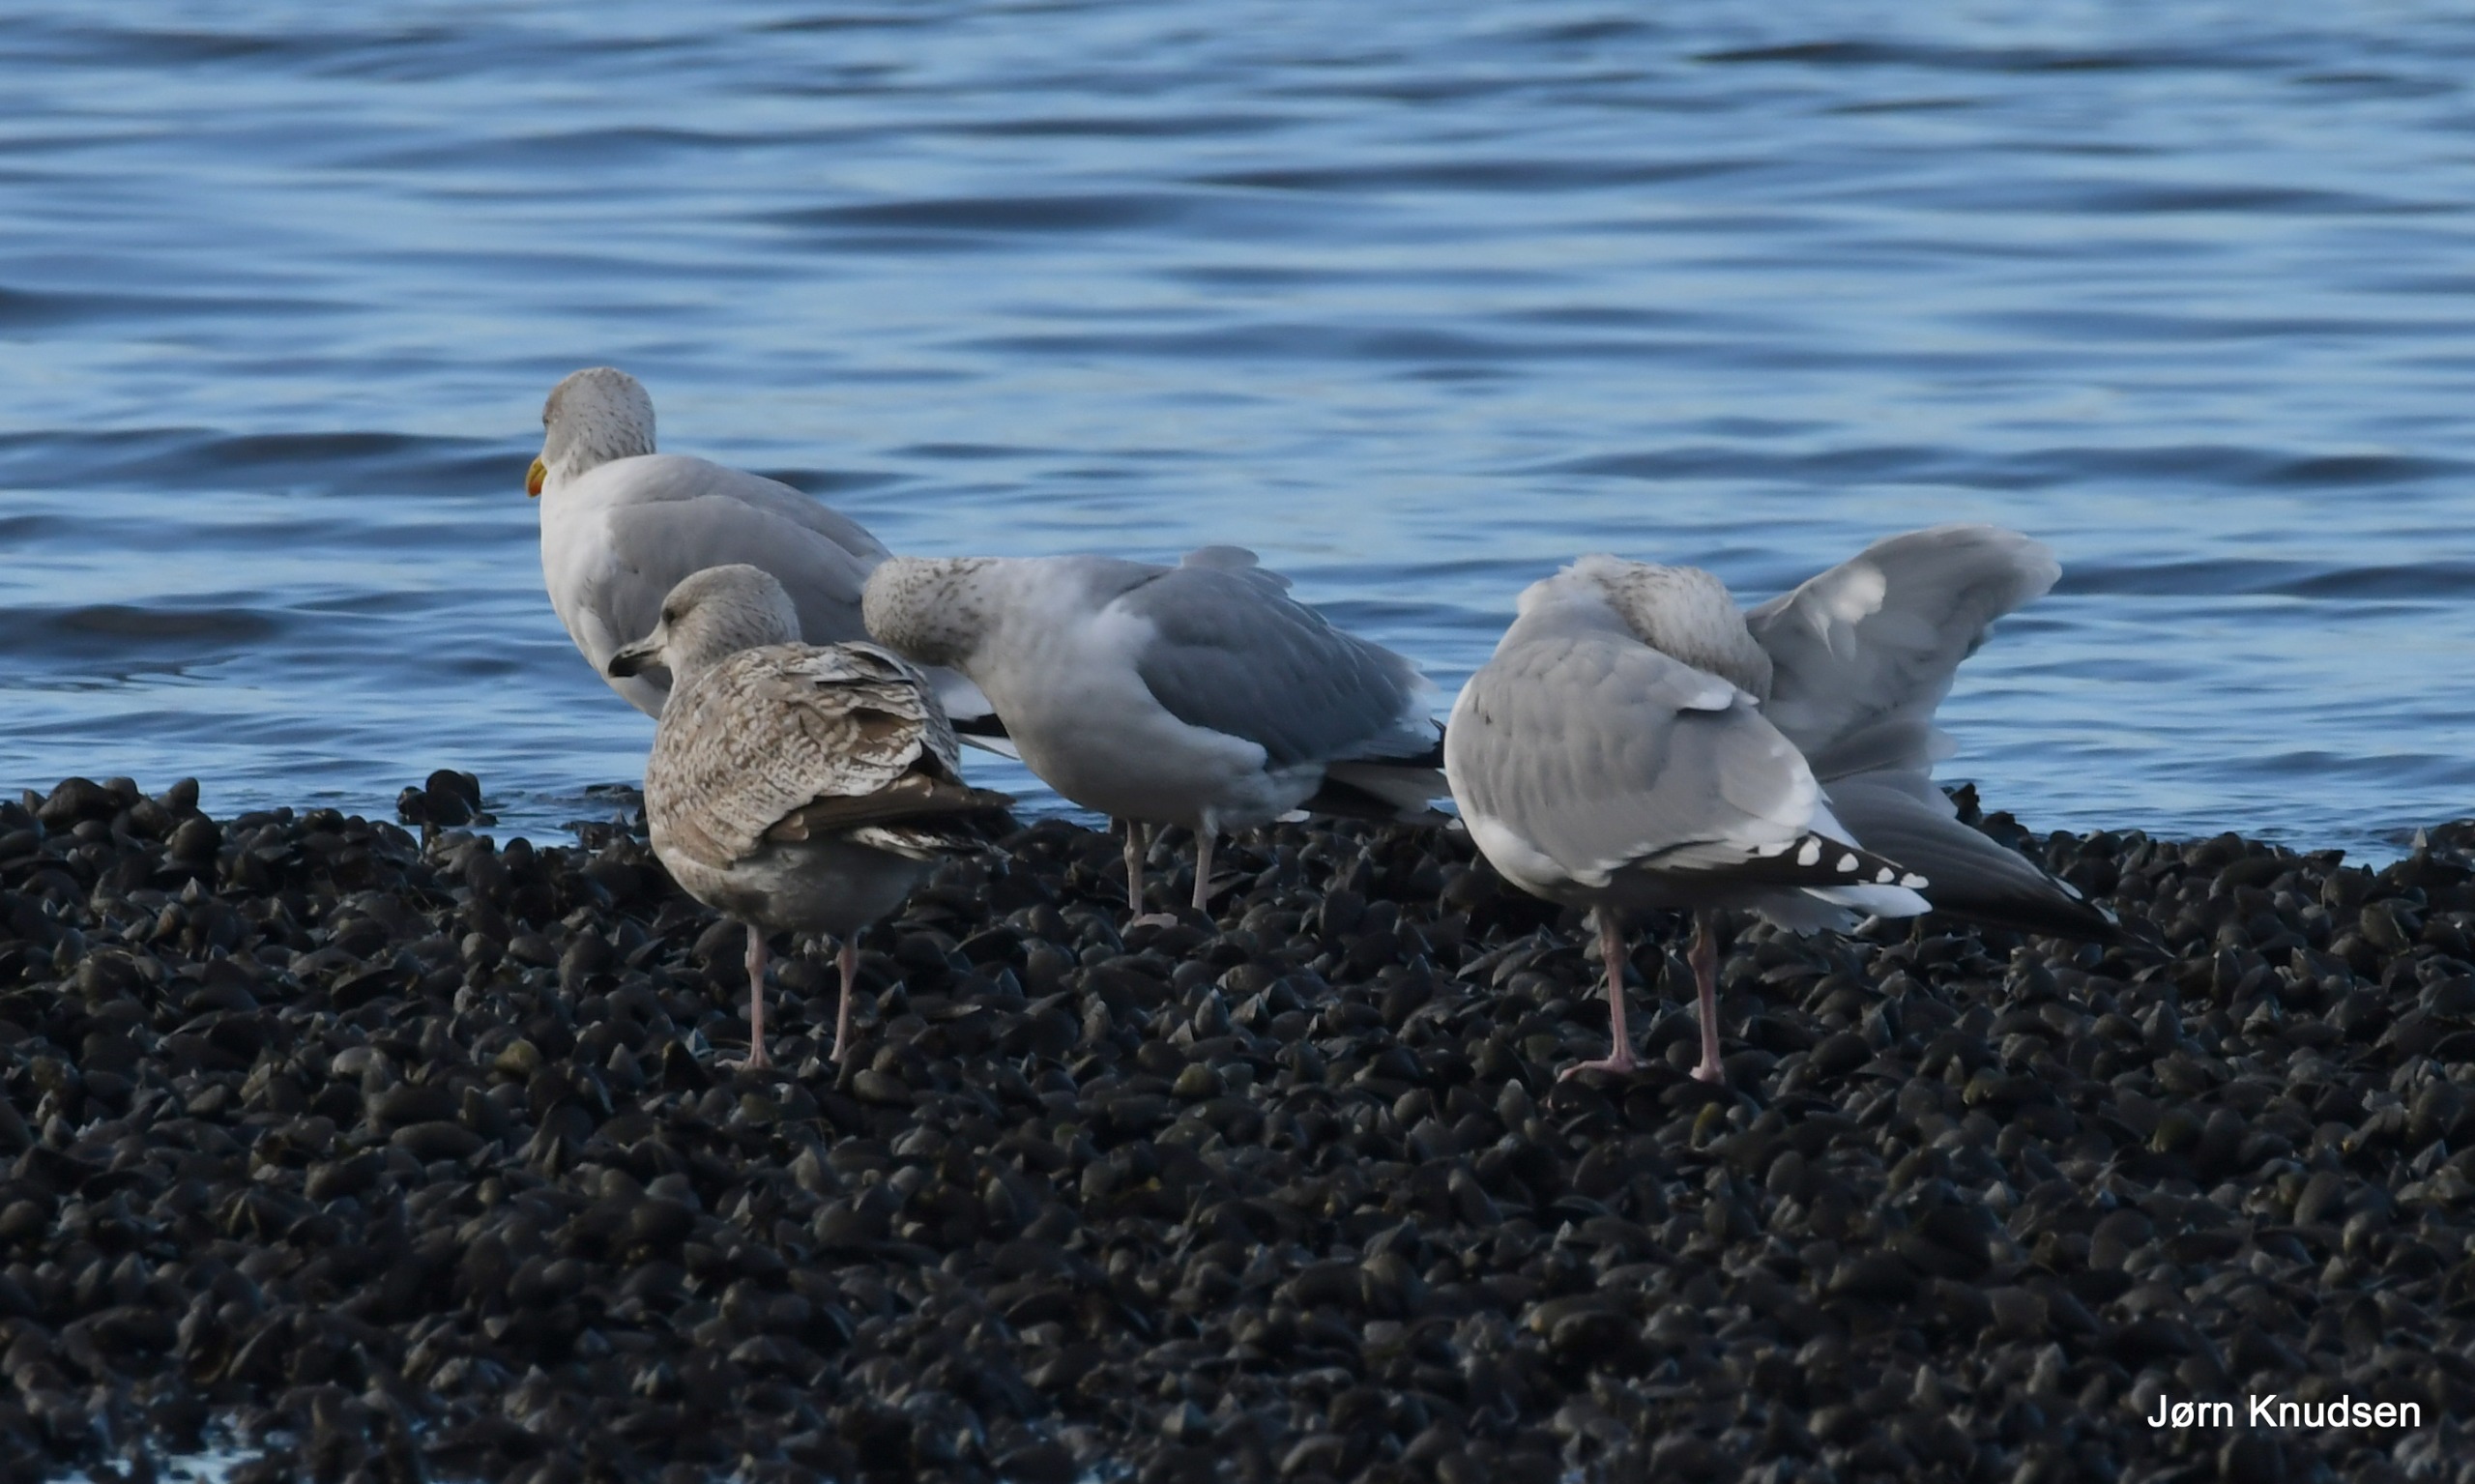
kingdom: Animalia
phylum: Chordata
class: Aves
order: Charadriiformes
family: Laridae
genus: Larus
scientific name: Larus argentatus
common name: Sølvmåge
